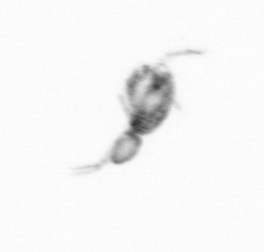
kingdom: Animalia
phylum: Arthropoda
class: Copepoda
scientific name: Copepoda
